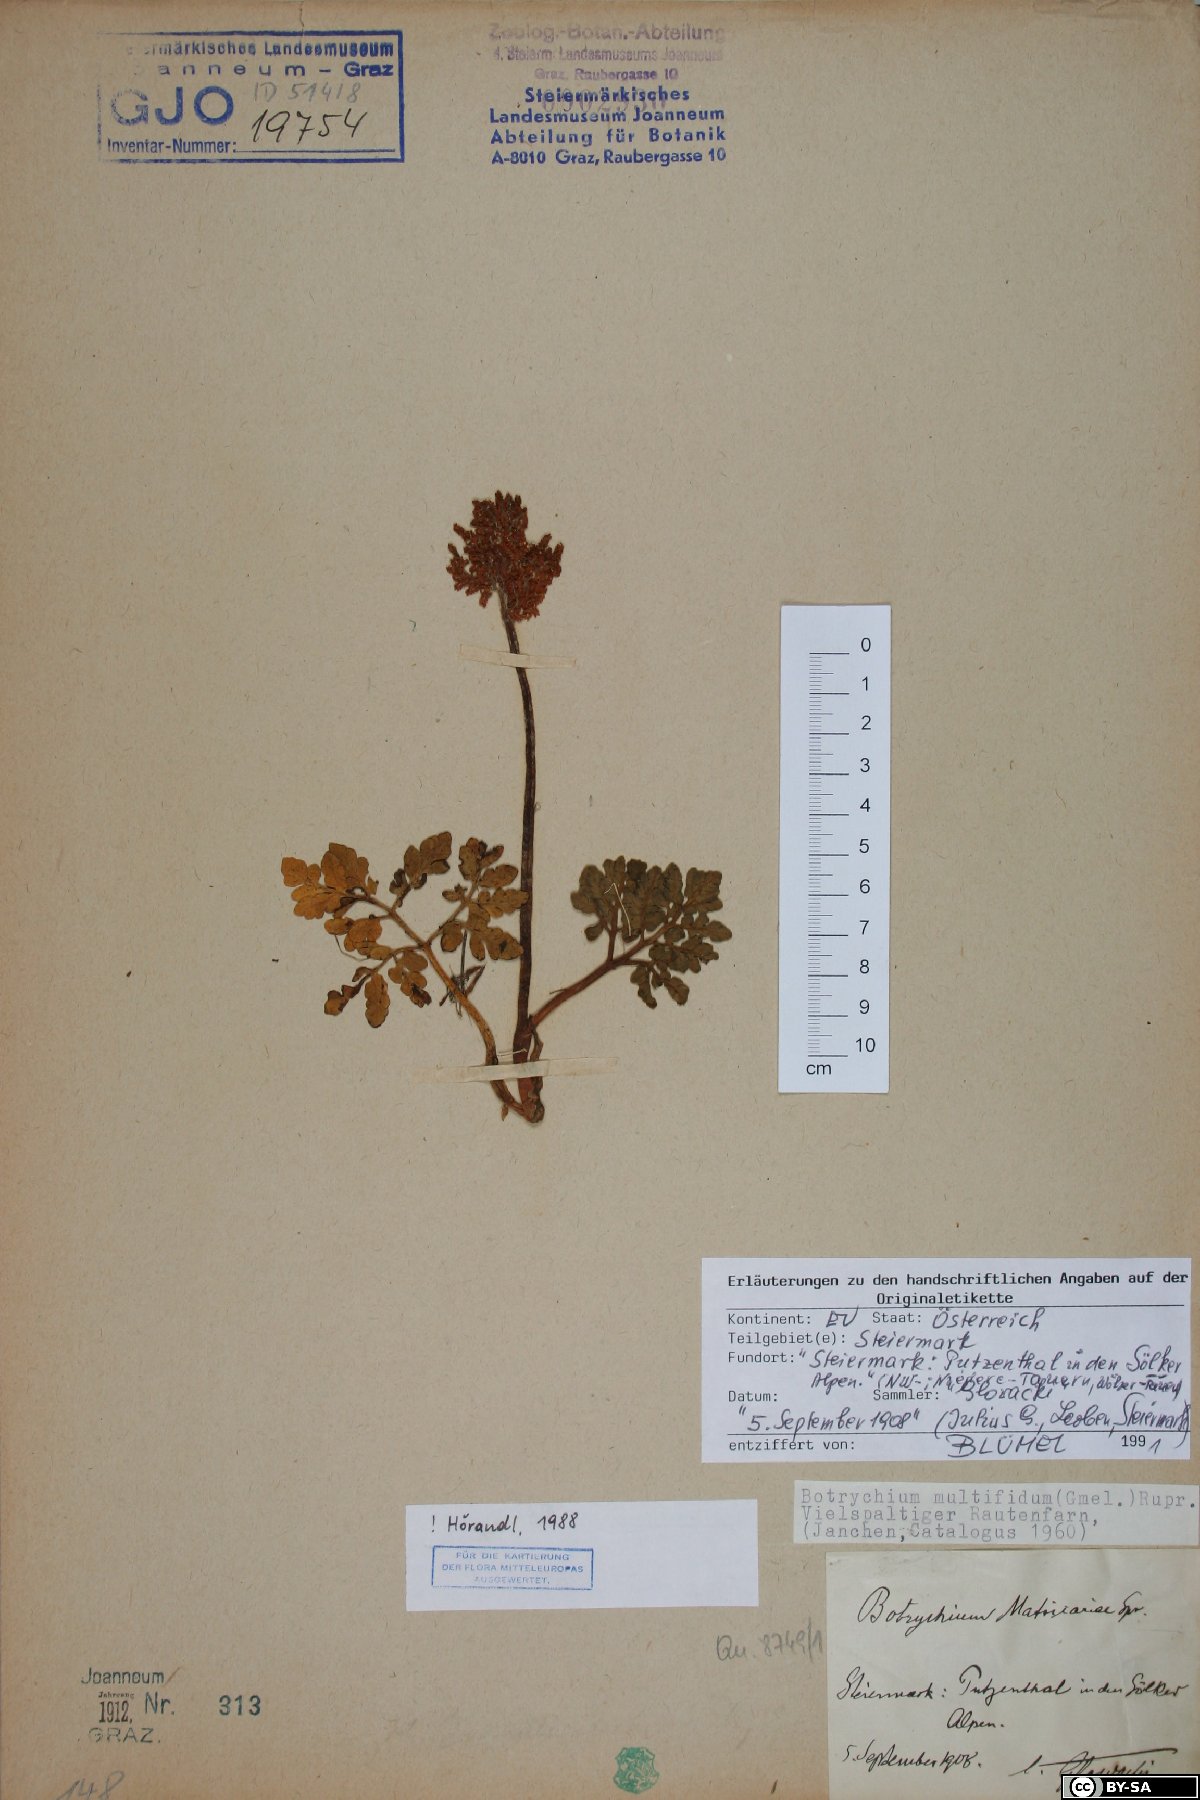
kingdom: Plantae
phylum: Tracheophyta
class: Polypodiopsida
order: Ophioglossales
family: Ophioglossaceae
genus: Sceptridium
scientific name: Sceptridium multifidum
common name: Leathery grape fern
